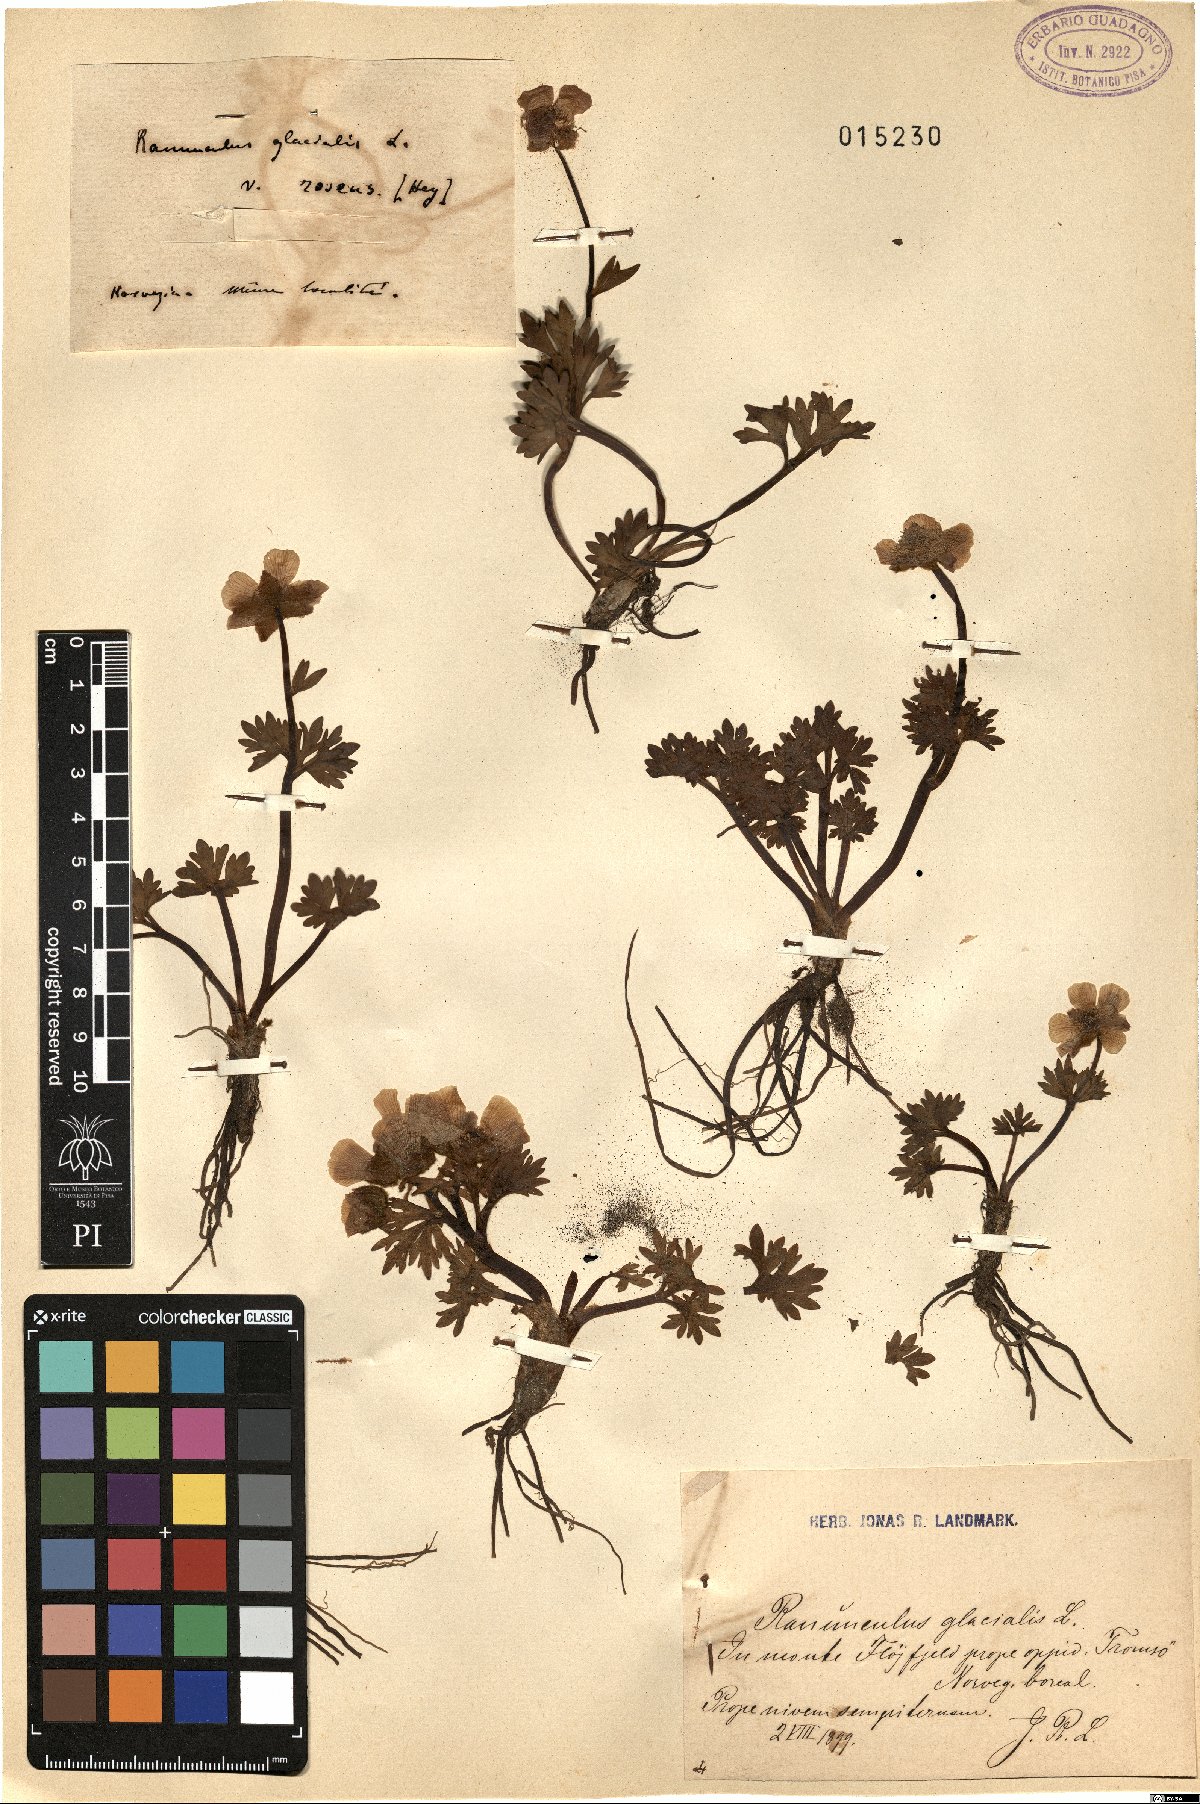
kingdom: Plantae
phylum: Tracheophyta
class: Magnoliopsida
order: Ranunculales
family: Ranunculaceae
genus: Ranunculus
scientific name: Ranunculus glacialis
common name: Glacier buttercup
